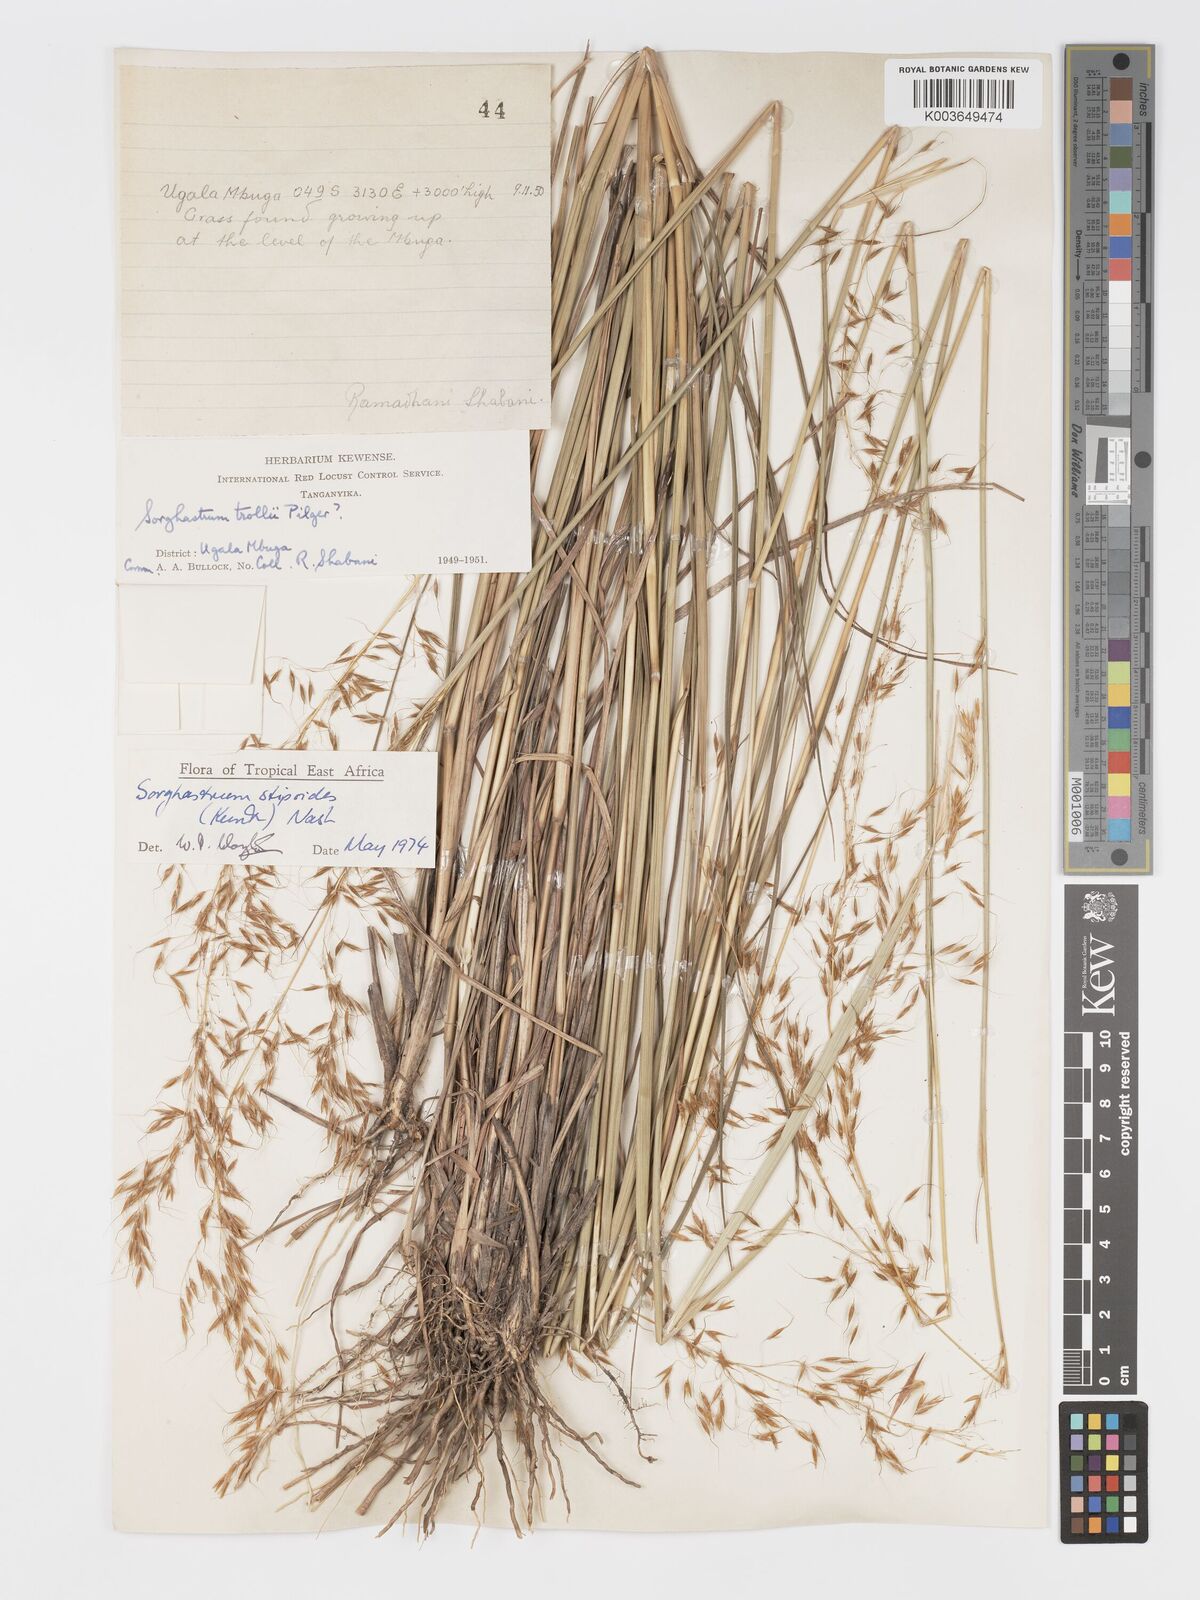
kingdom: Plantae
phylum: Tracheophyta
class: Liliopsida
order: Poales
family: Poaceae
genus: Sorghastrum
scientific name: Sorghastrum stipoides
